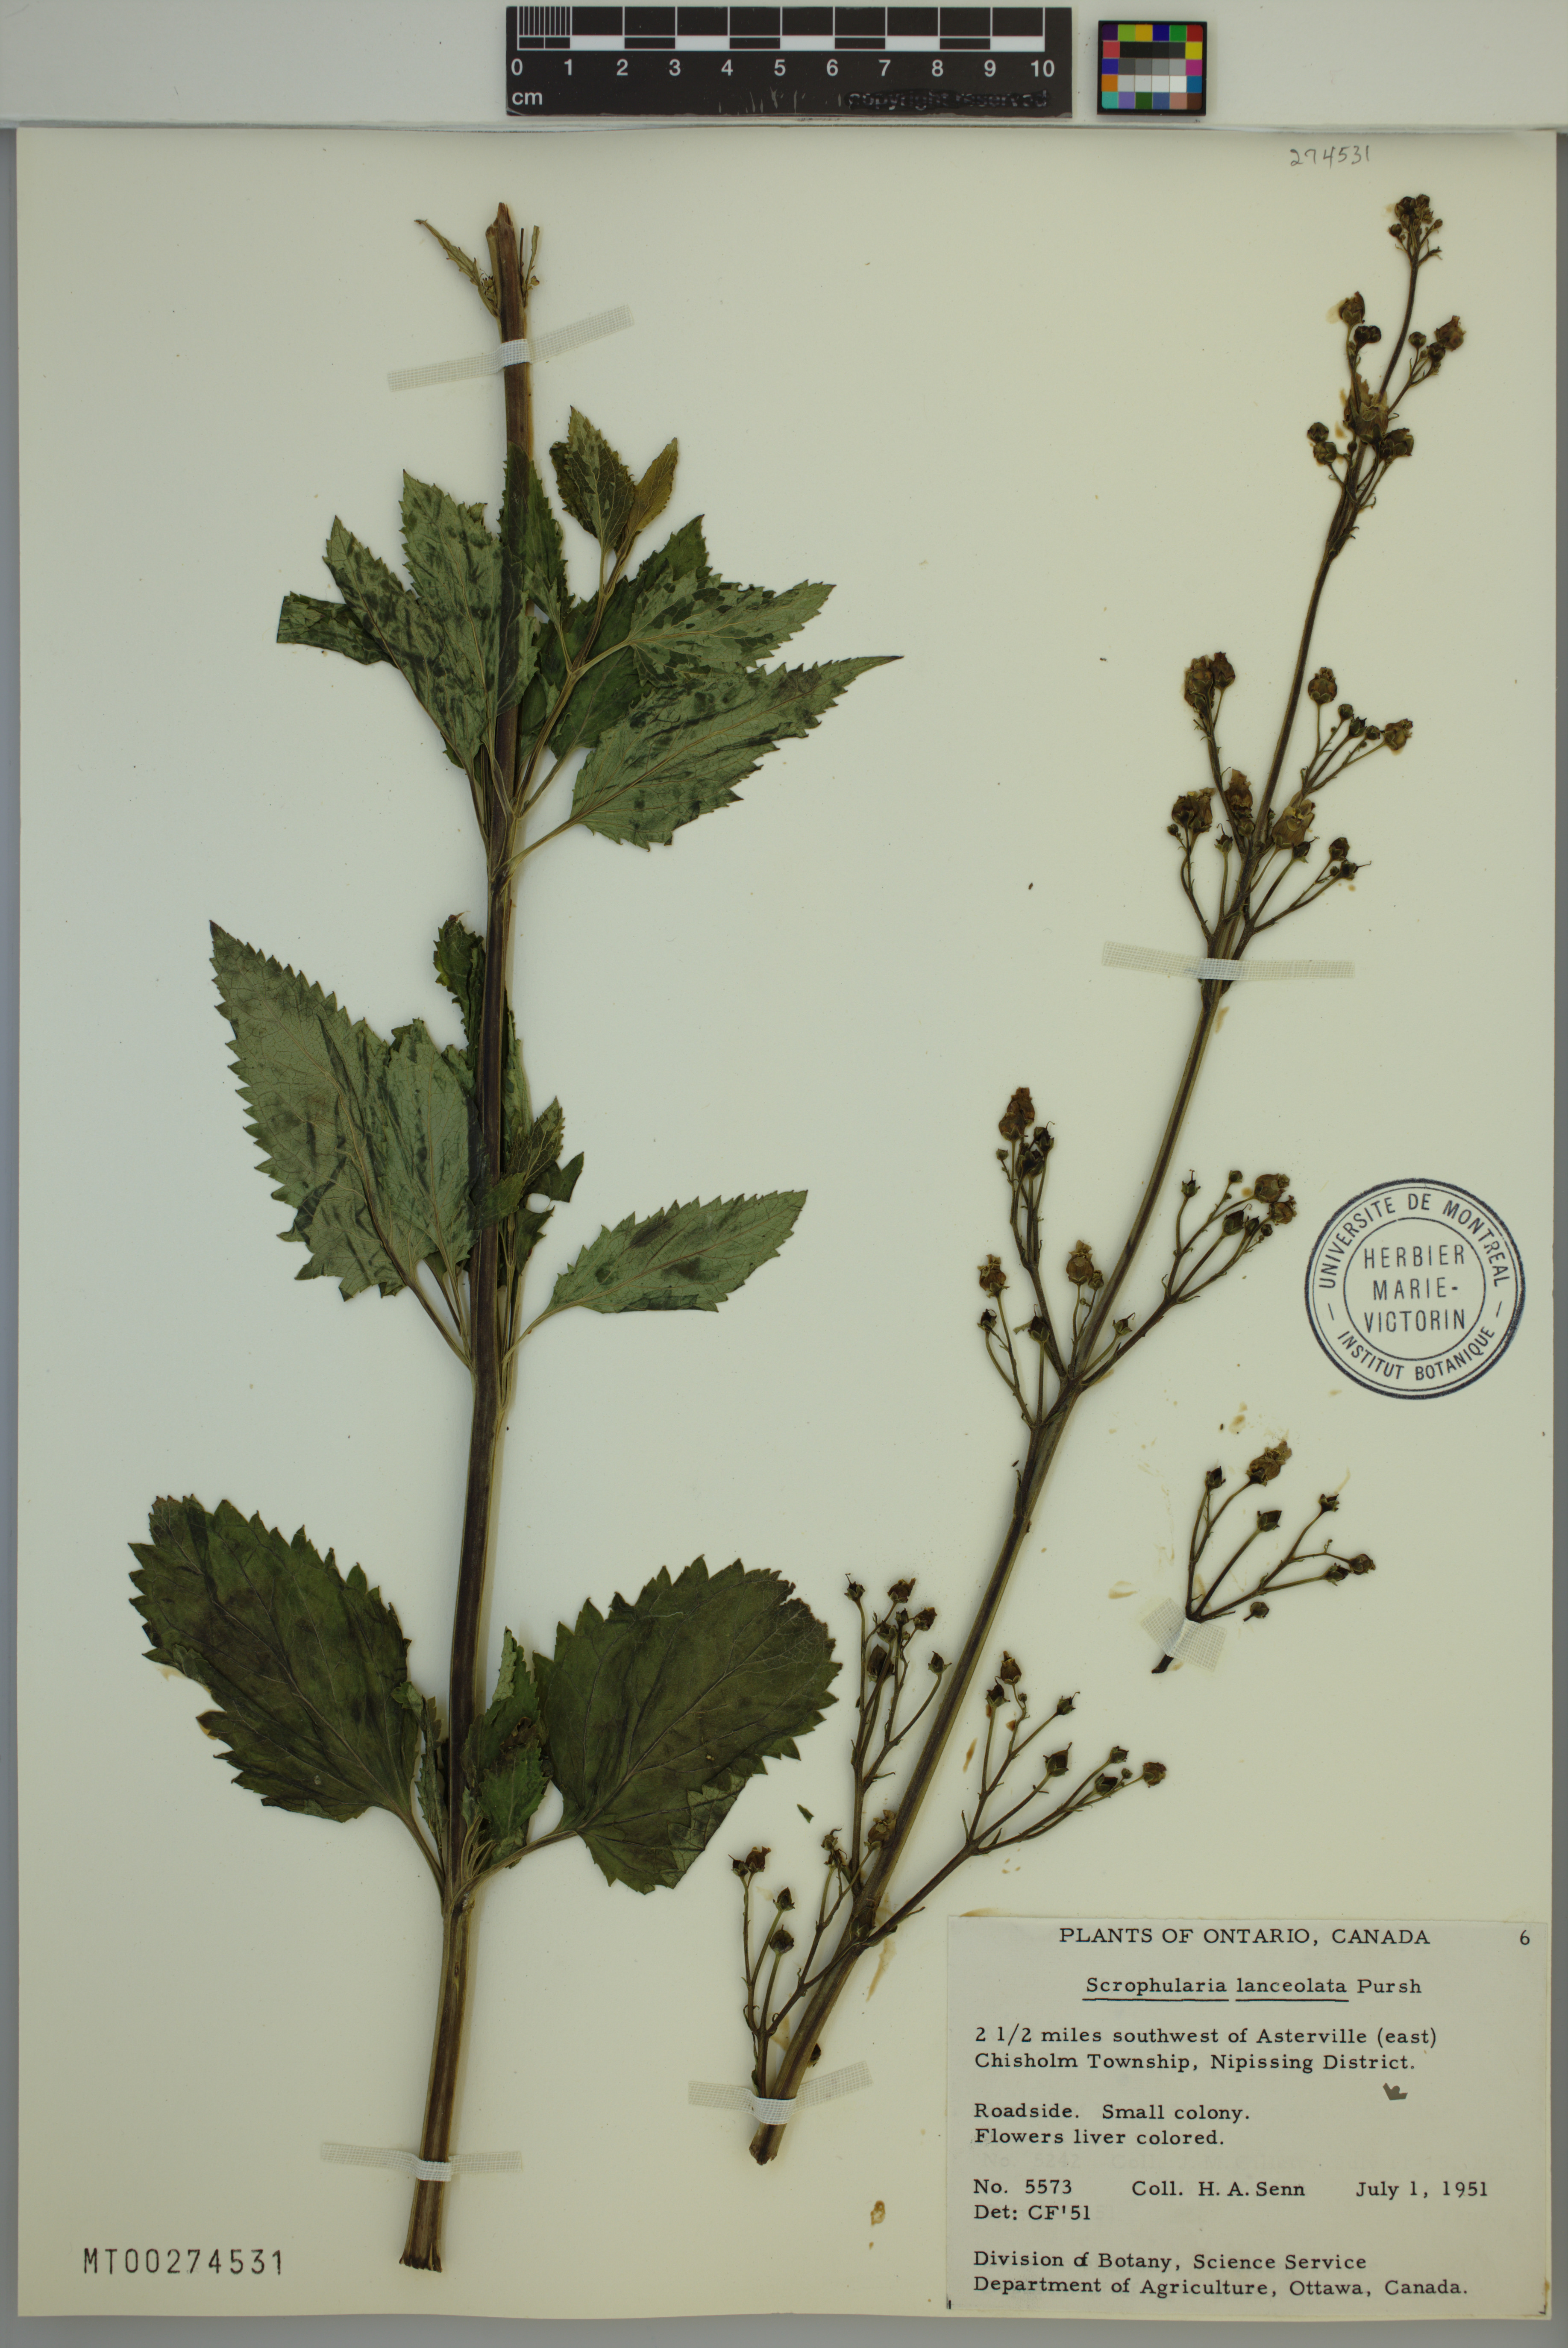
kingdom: Plantae
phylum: Tracheophyta
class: Magnoliopsida
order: Lamiales
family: Scrophulariaceae
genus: Scrophularia
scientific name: Scrophularia lanceolata
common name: American figwort
